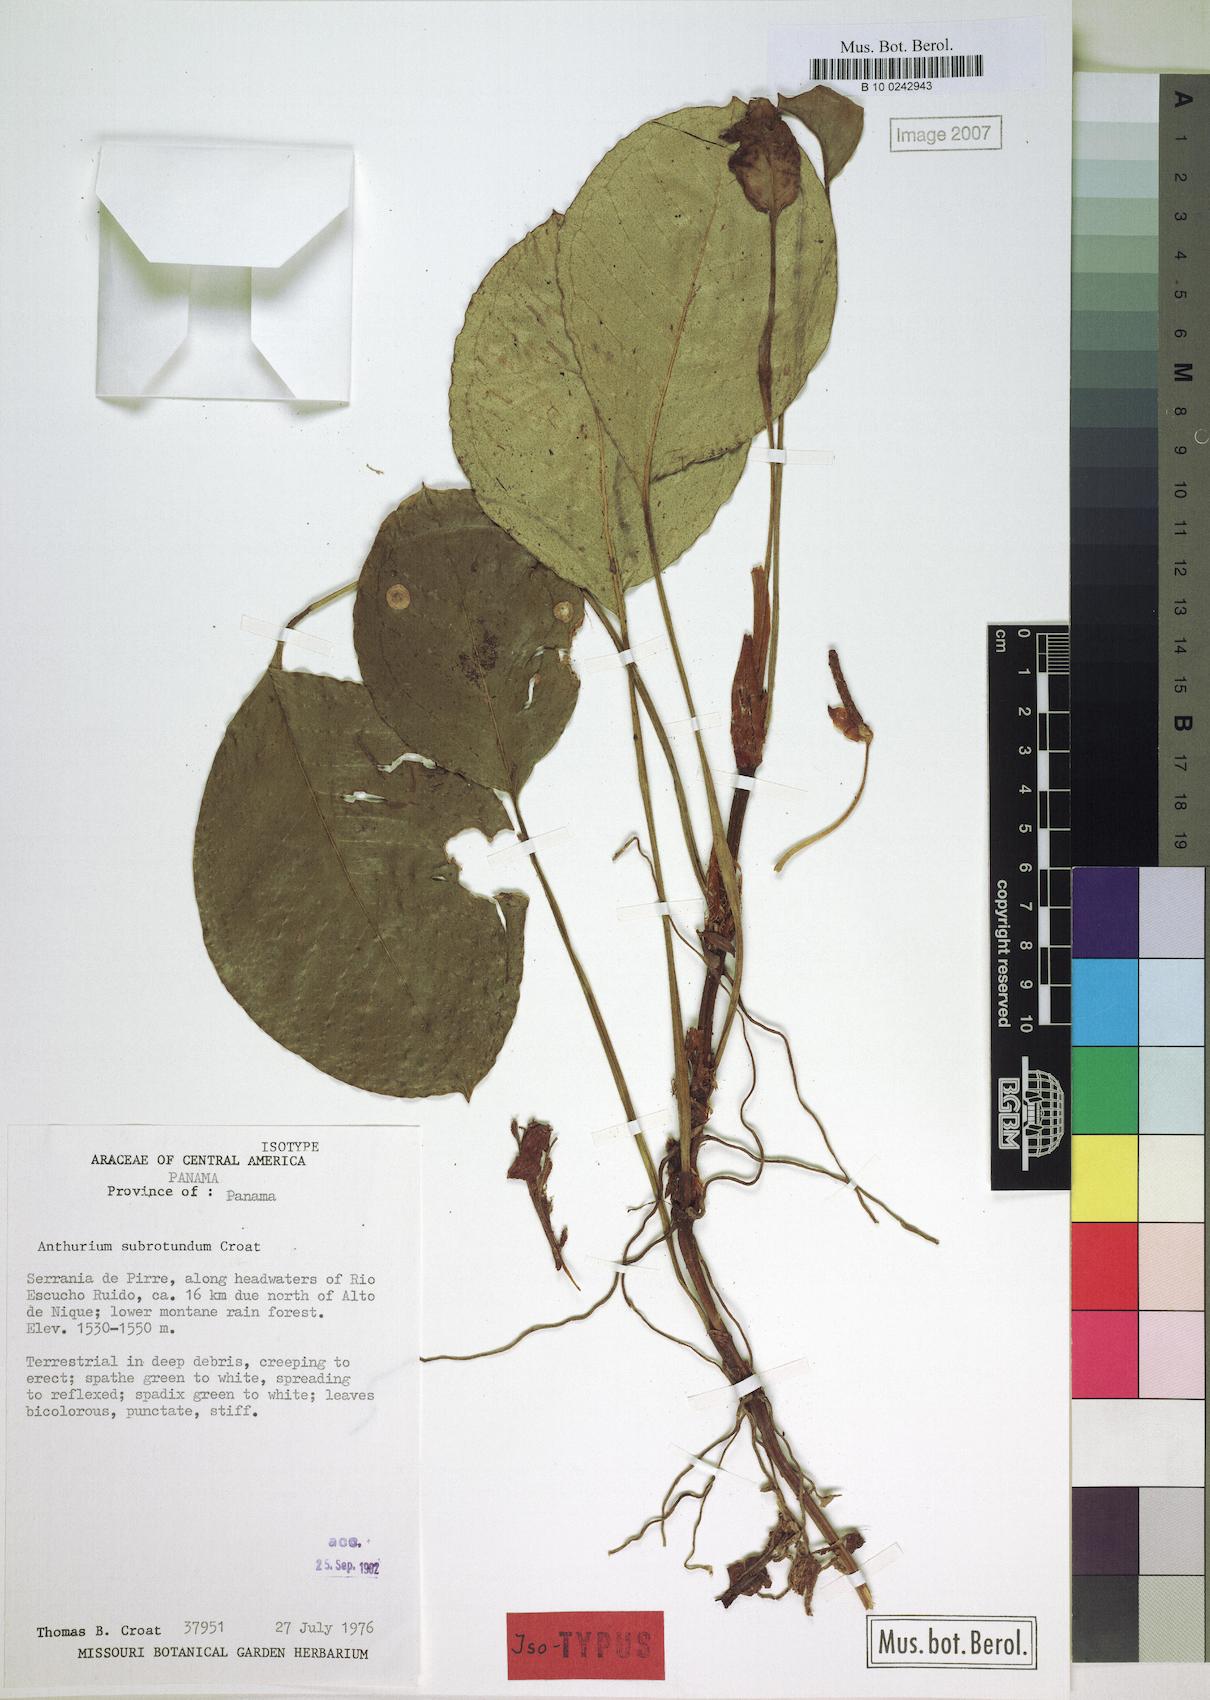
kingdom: Plantae
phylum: Tracheophyta
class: Liliopsida
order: Alismatales
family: Araceae
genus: Anthurium
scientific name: Anthurium subrotundum
